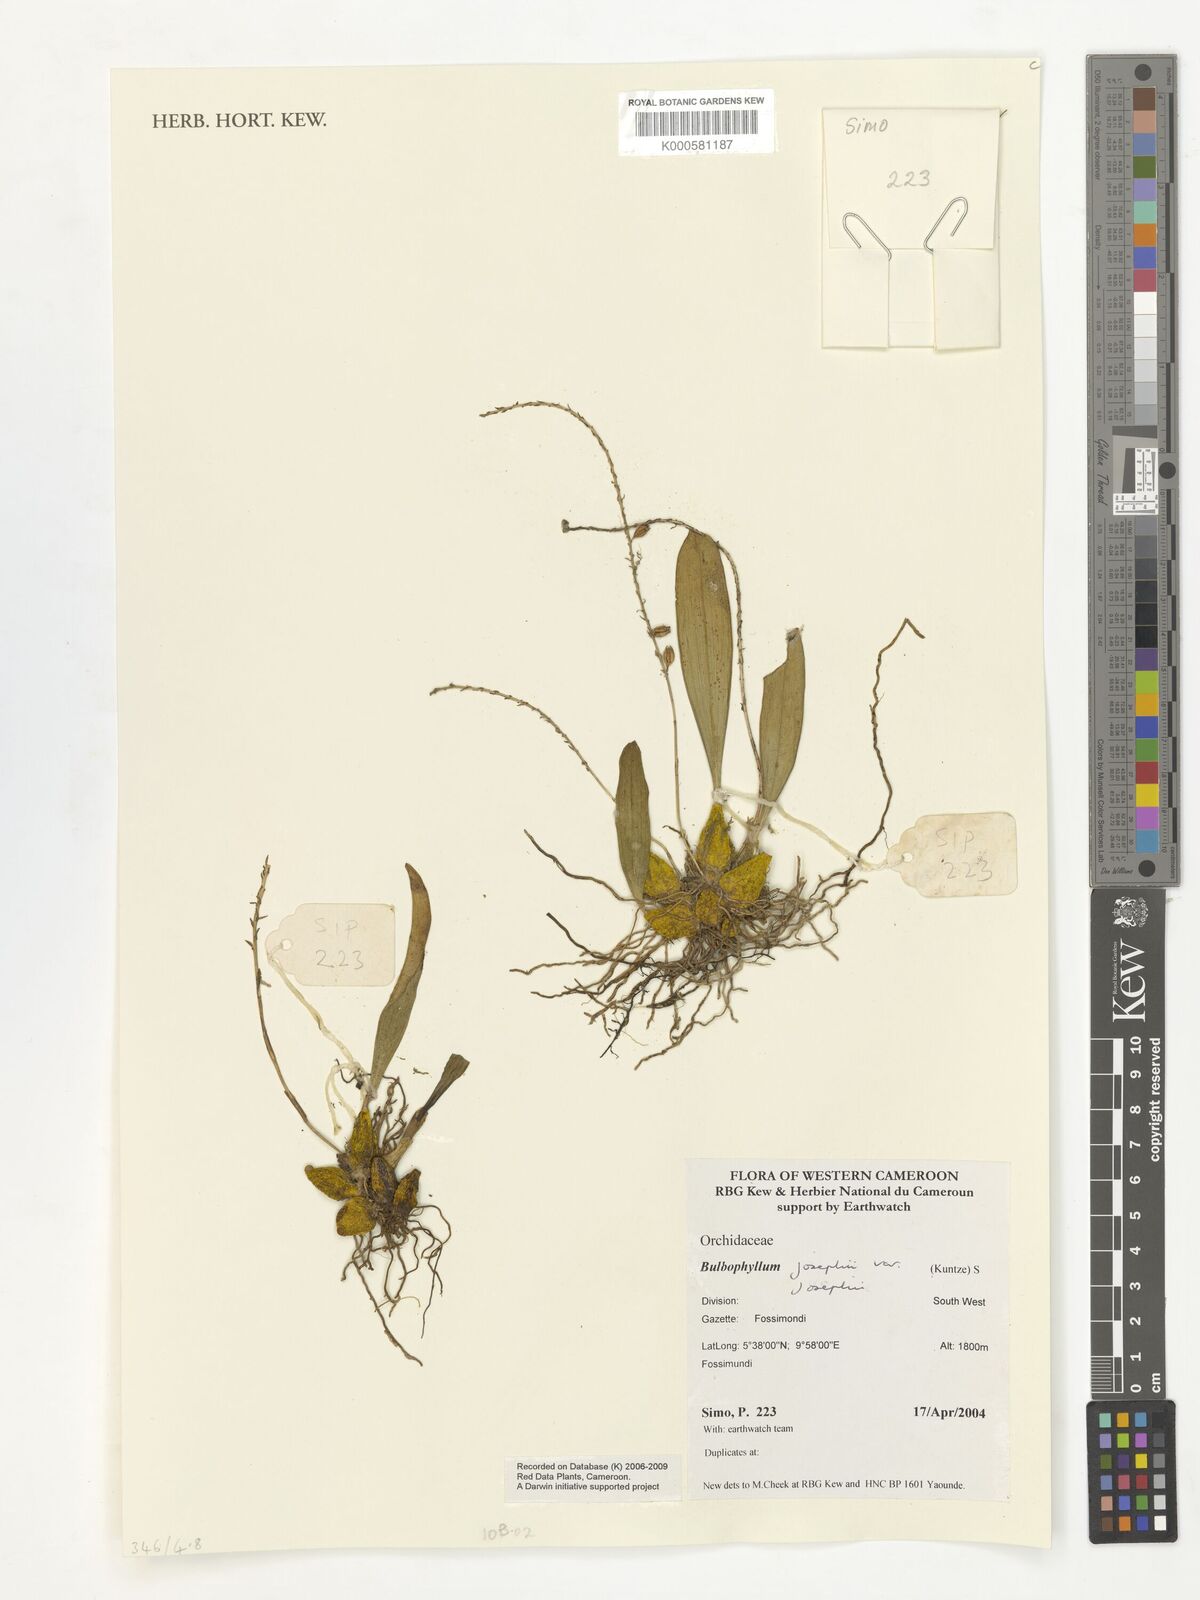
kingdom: Plantae
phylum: Tracheophyta
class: Liliopsida
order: Asparagales
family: Orchidaceae
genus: Bulbophyllum
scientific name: Bulbophyllum josephi
